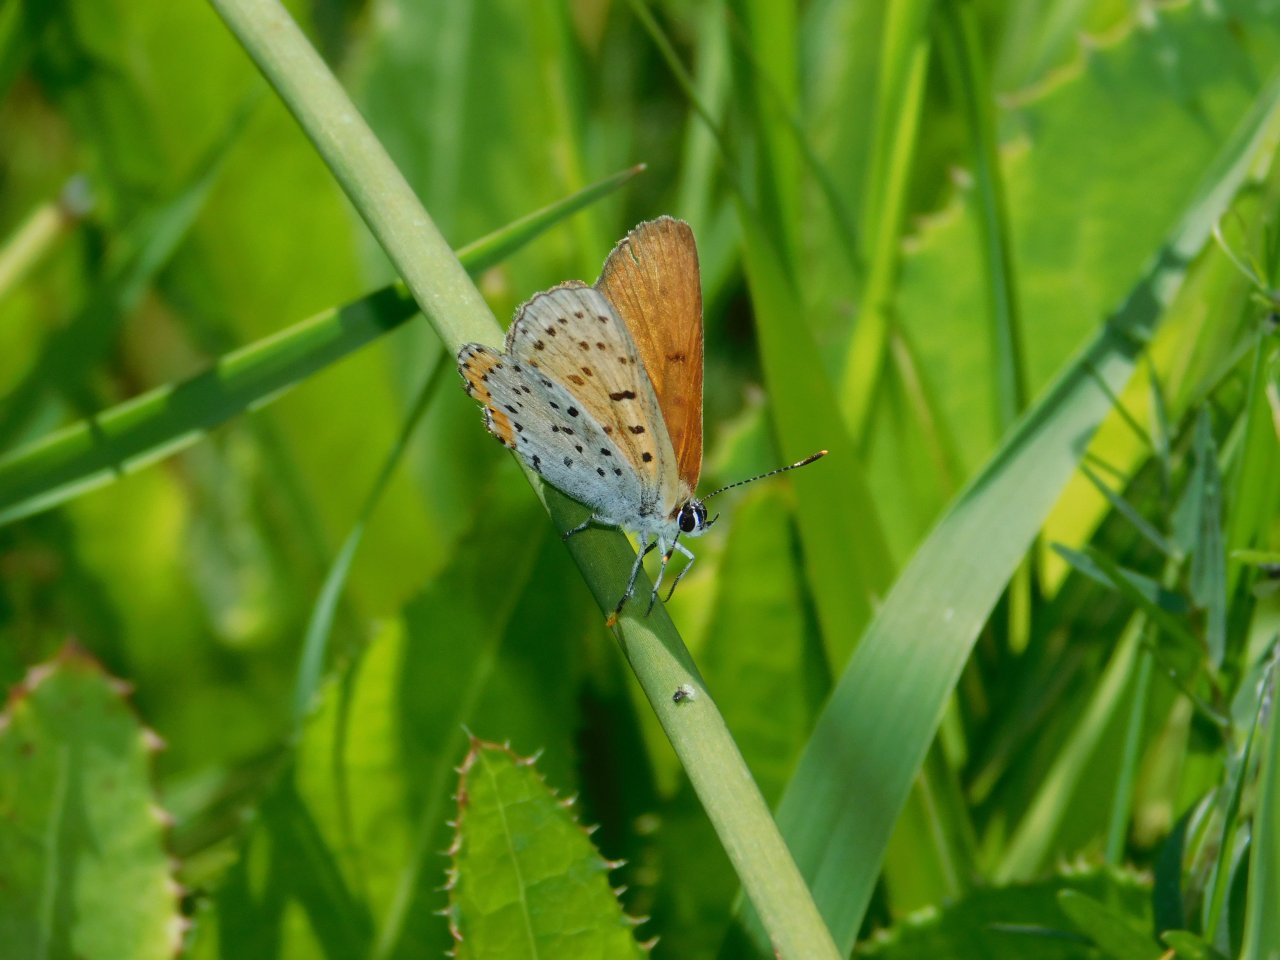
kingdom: Animalia
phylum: Arthropoda
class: Insecta
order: Lepidoptera
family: Sesiidae
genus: Sesia
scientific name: Sesia Lycaena hyllus
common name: Bronze Copper
